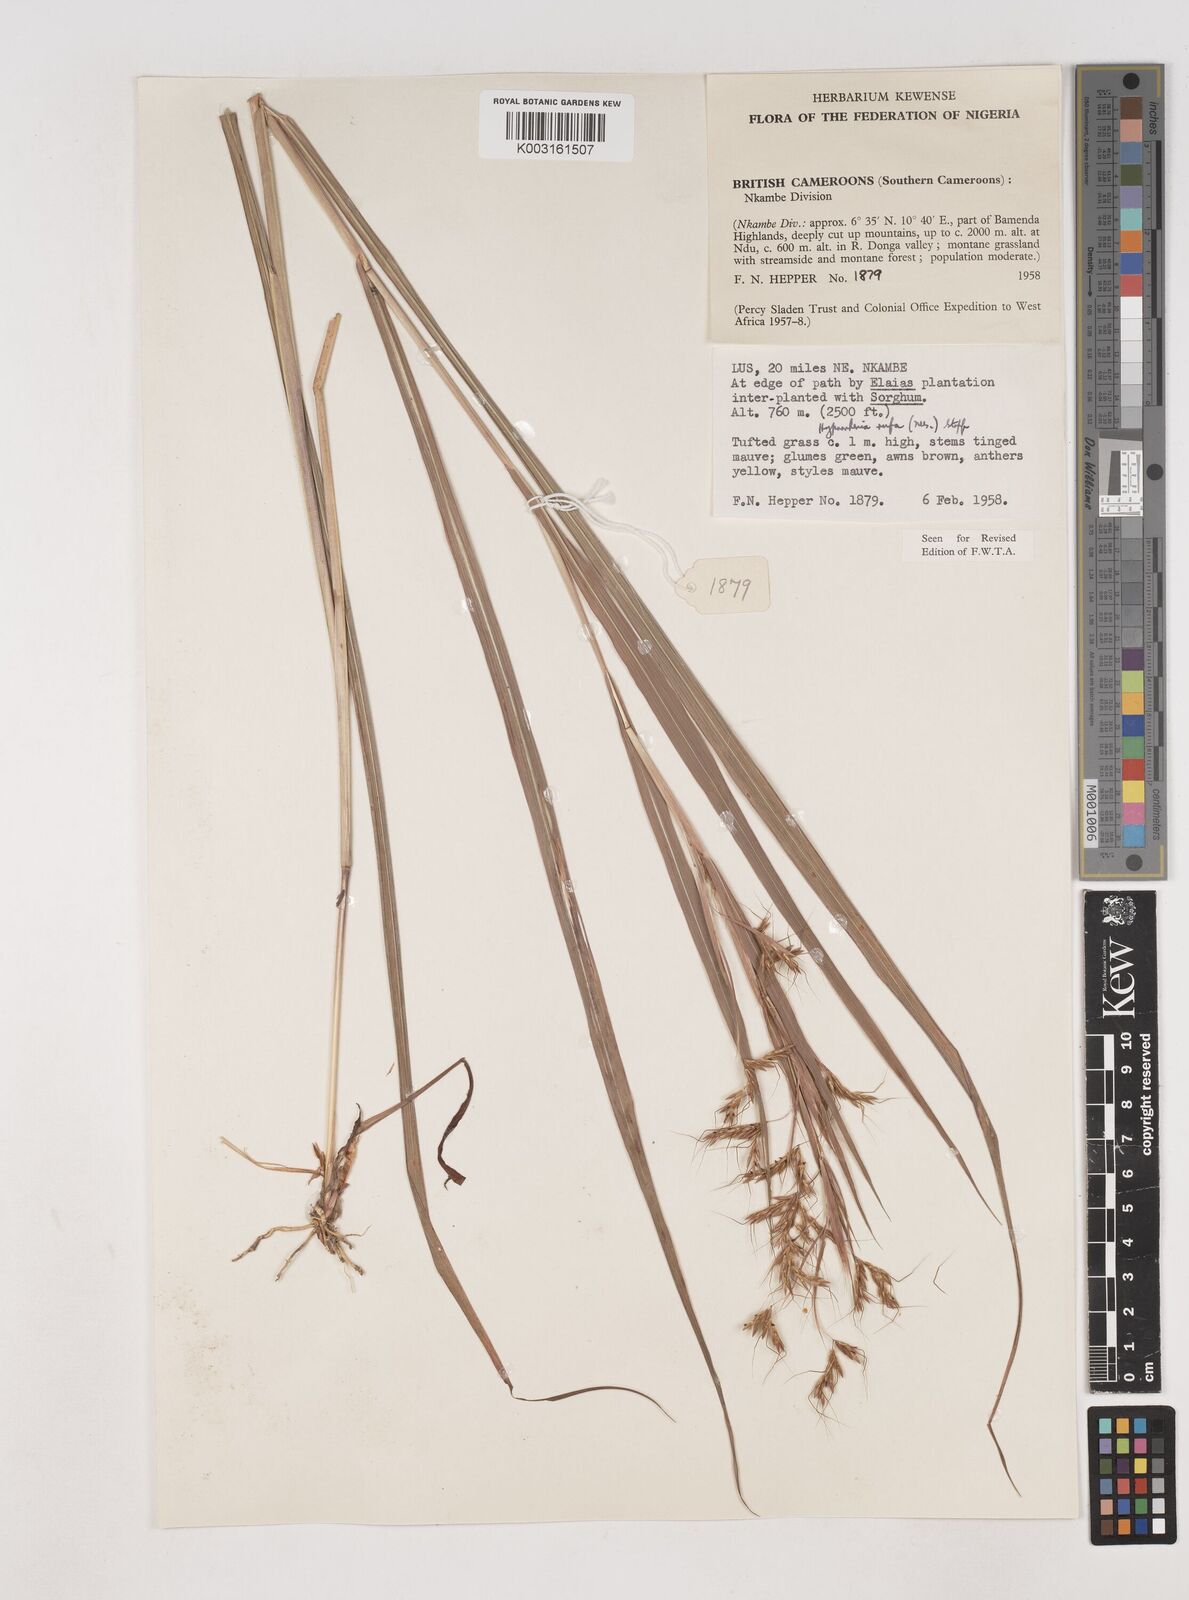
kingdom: Plantae
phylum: Tracheophyta
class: Liliopsida
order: Poales
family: Poaceae
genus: Hyparrhenia
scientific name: Hyparrhenia rufa
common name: Jaraguagrass
